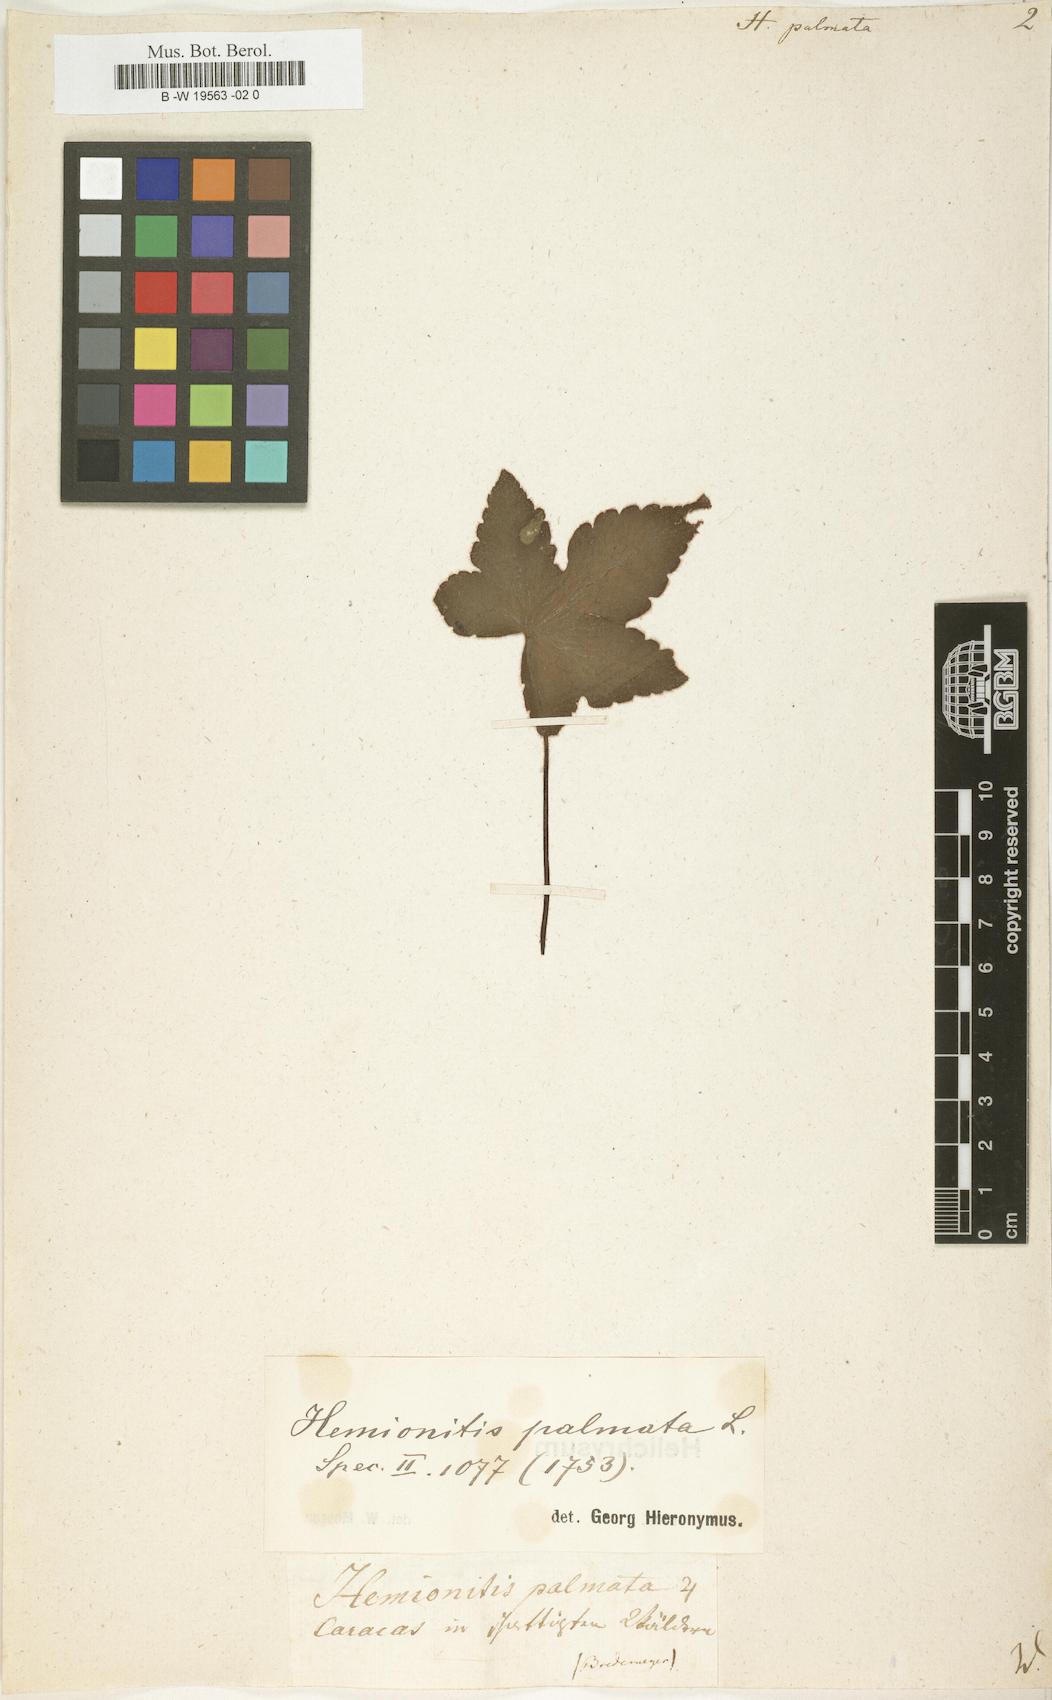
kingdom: Plantae
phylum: Tracheophyta
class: Polypodiopsida
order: Polypodiales
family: Pteridaceae
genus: Hemionitis
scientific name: Hemionitis palmata
